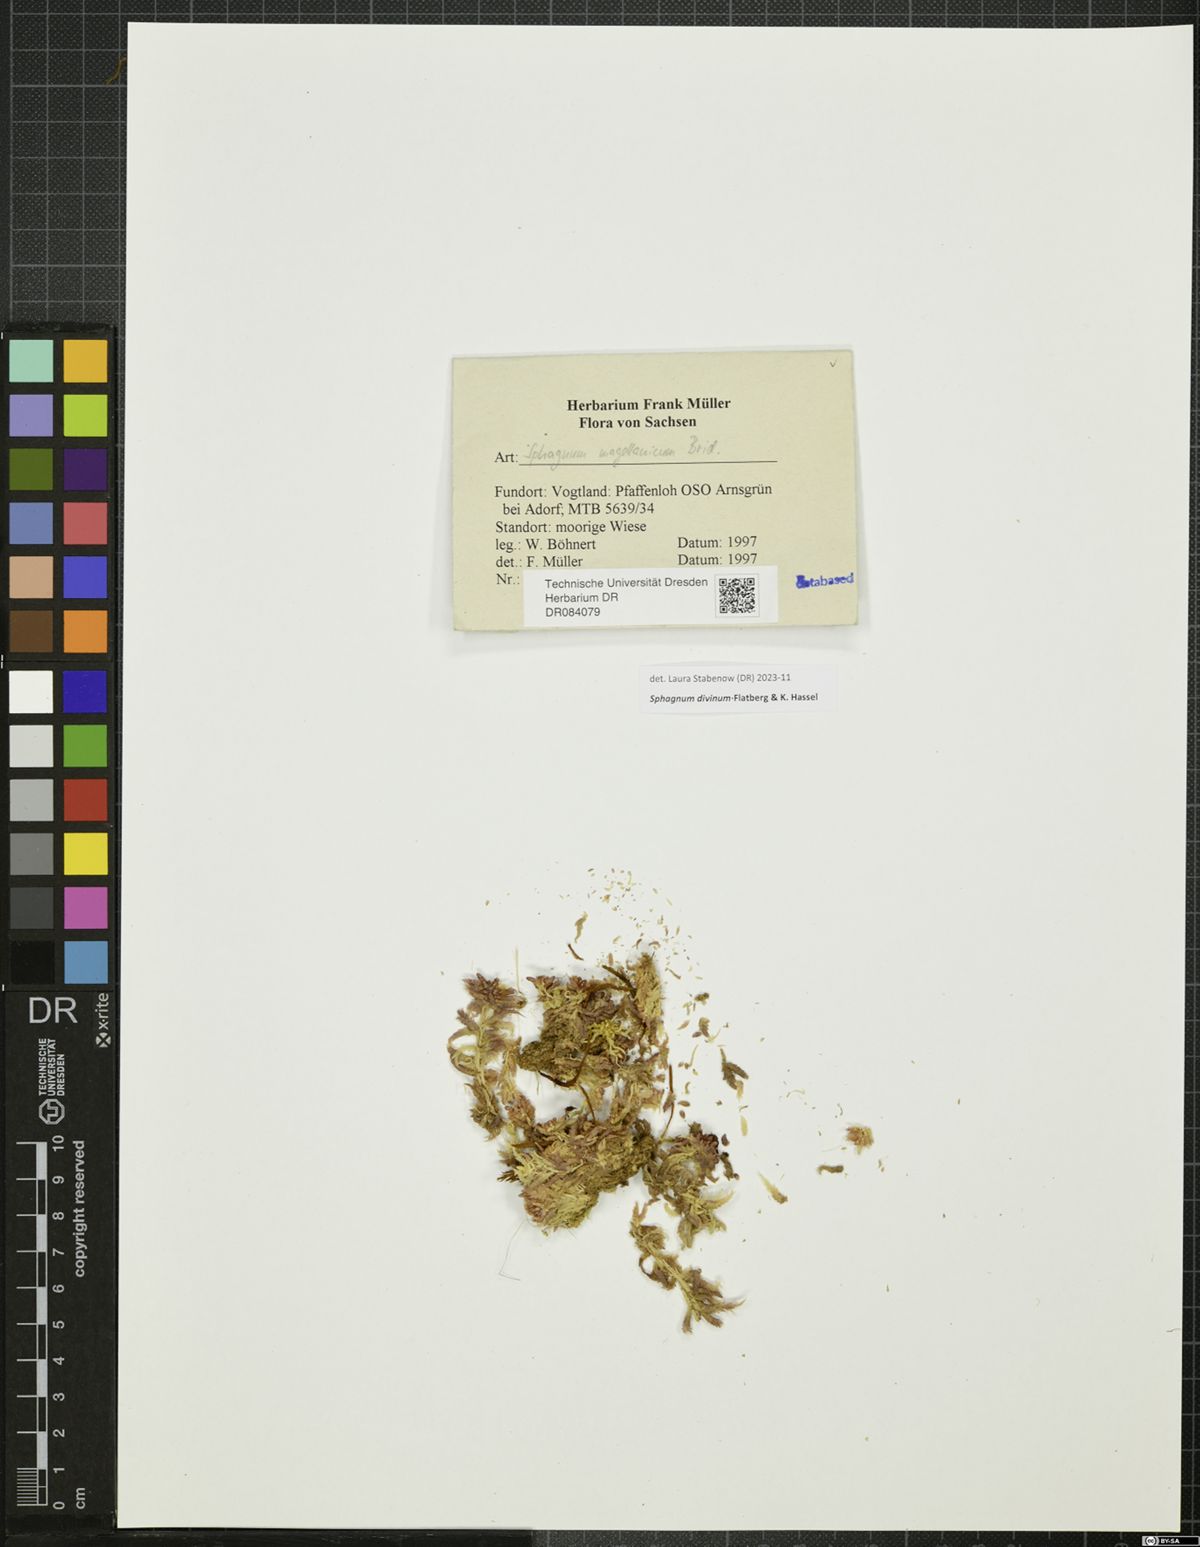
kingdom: Plantae
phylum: Bryophyta
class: Sphagnopsida
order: Sphagnales
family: Sphagnaceae
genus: Sphagnum
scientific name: Sphagnum divinum
